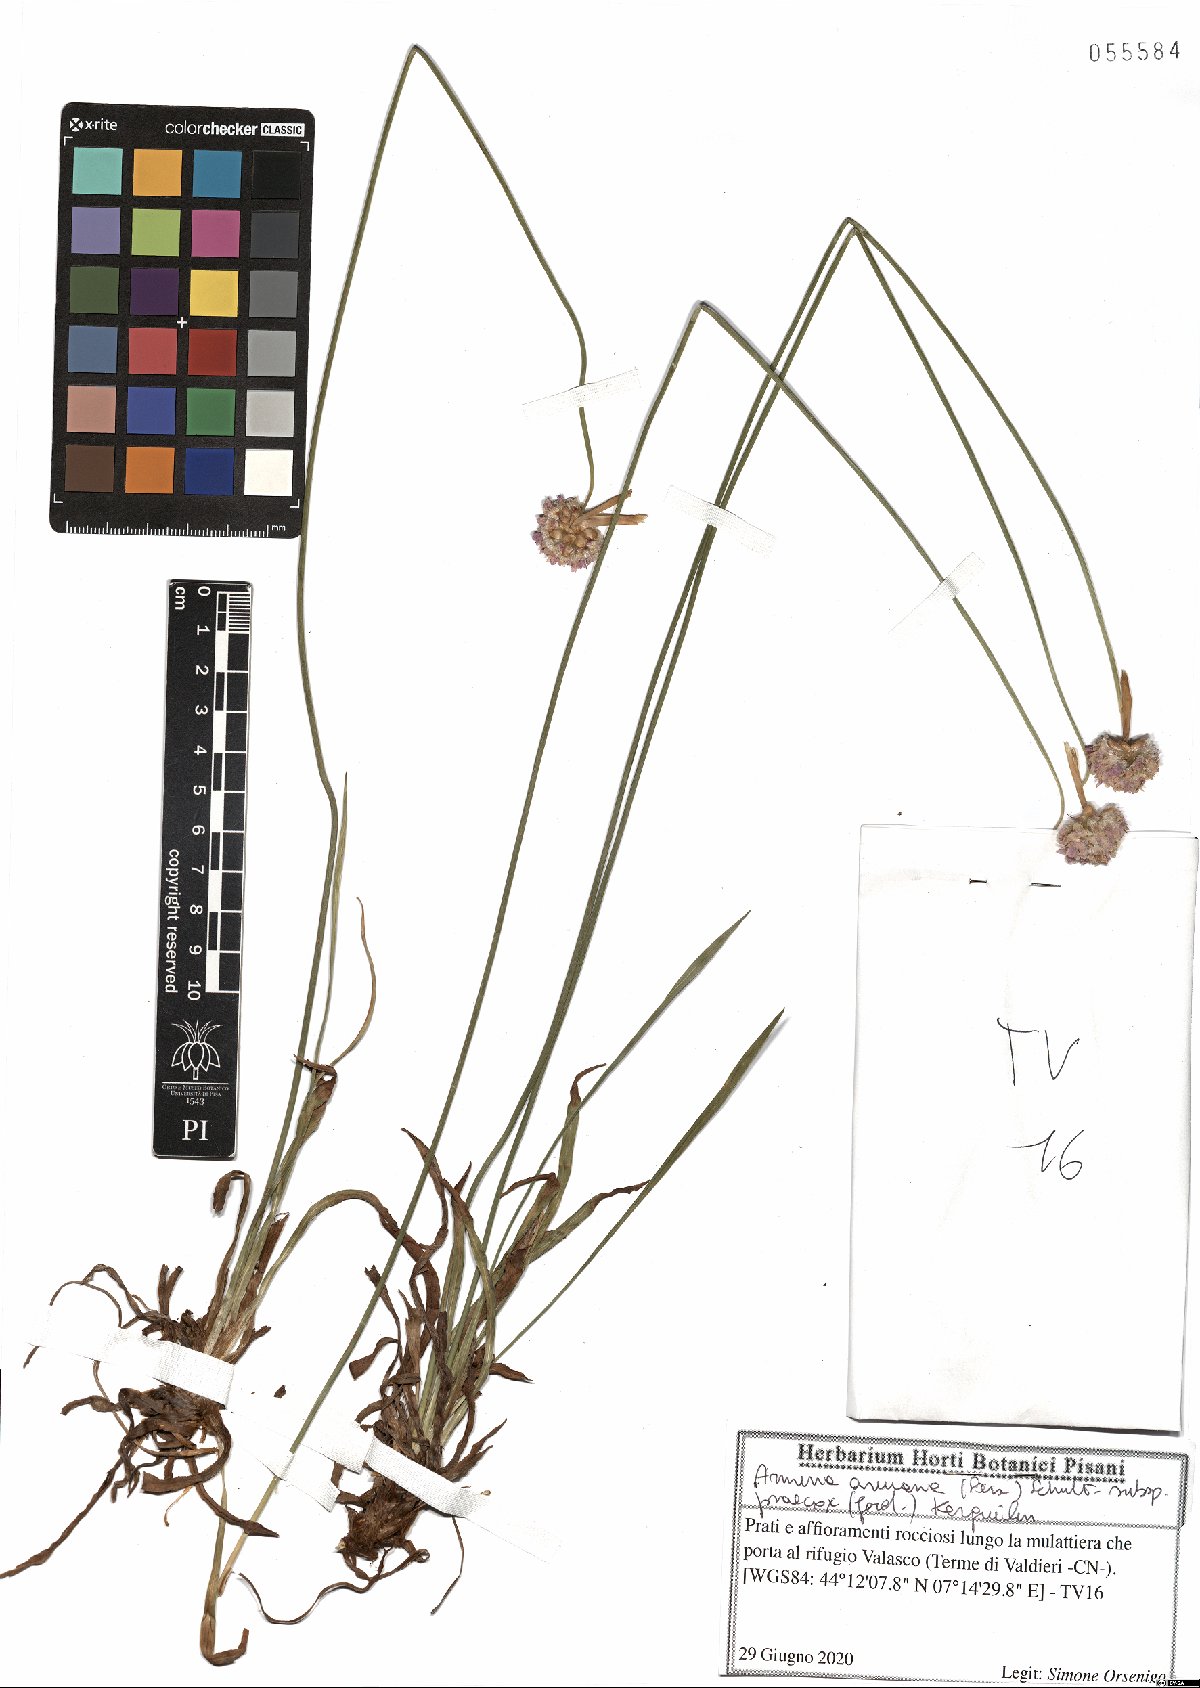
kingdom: Plantae
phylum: Tracheophyta
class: Magnoliopsida
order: Caryophyllales
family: Plumbaginaceae
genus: Armeria
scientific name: Armeria arenaria
